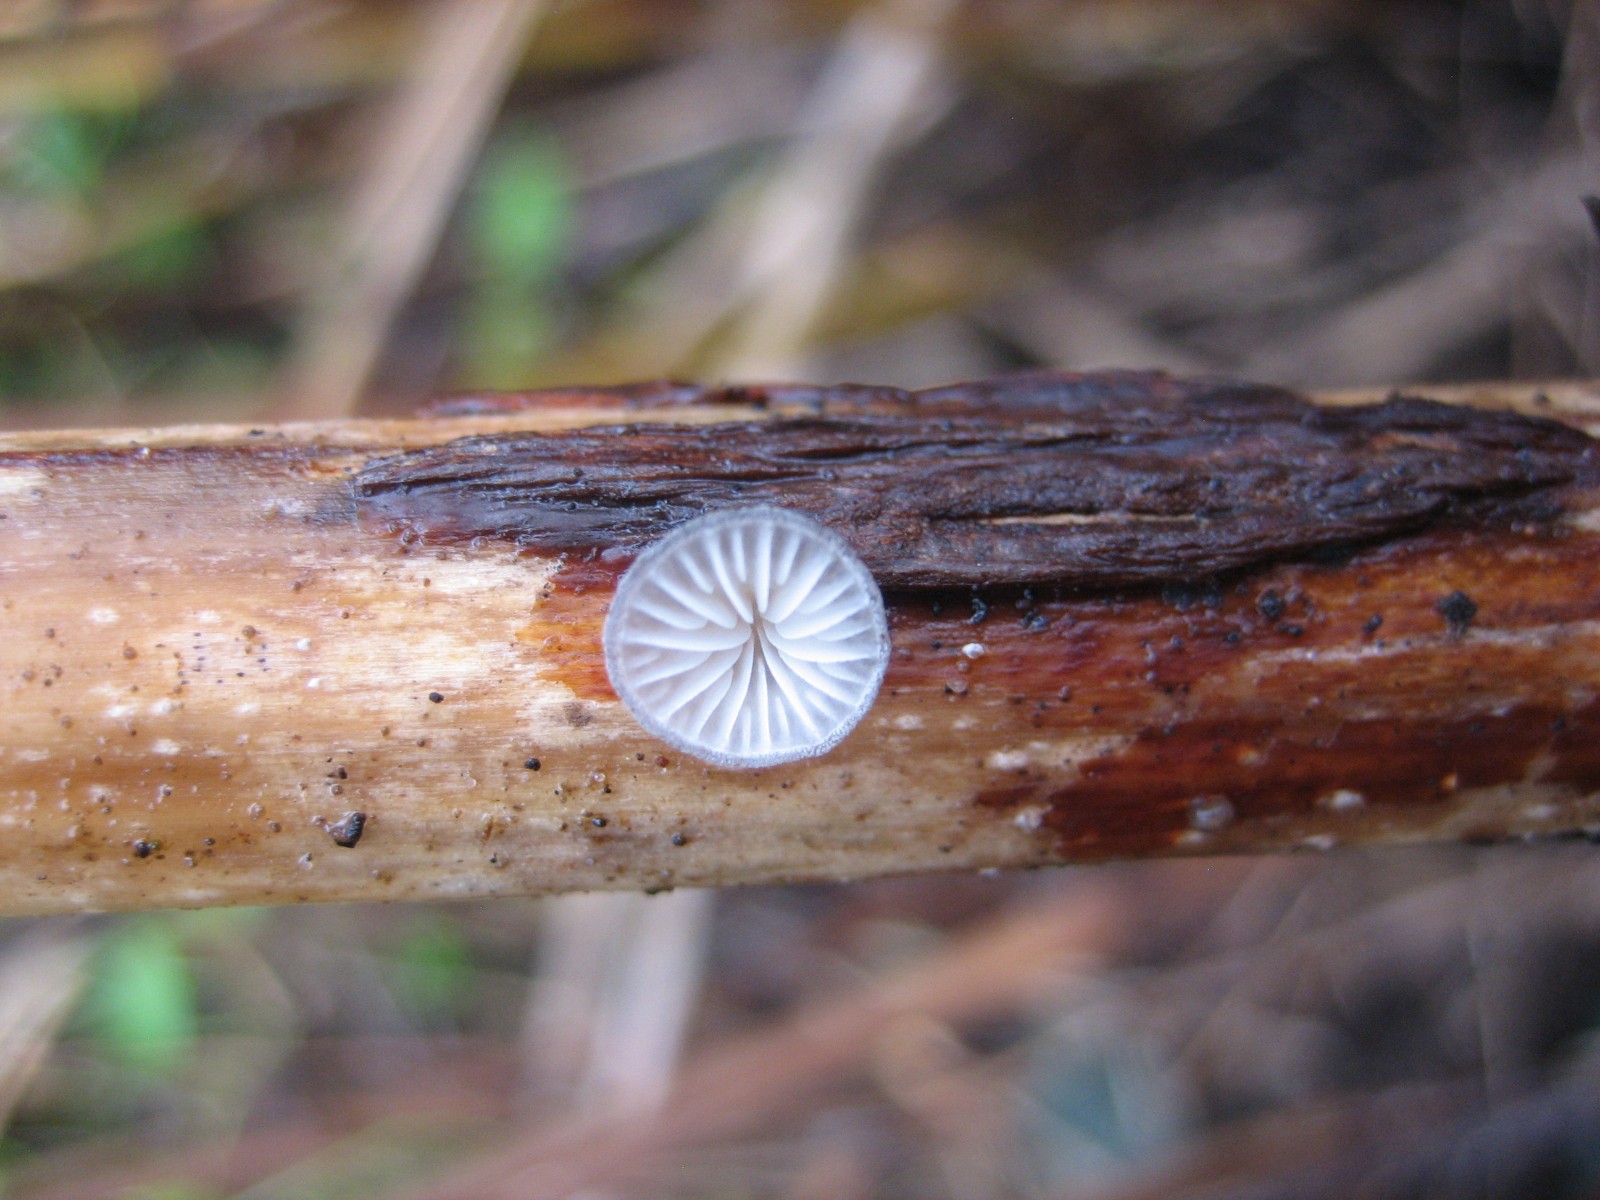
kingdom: Fungi
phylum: Basidiomycota
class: Agaricomycetes
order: Agaricales
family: Pleurotaceae
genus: Hohenbuehelia
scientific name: Hohenbuehelia cyphelliformis
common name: urte-filthat
